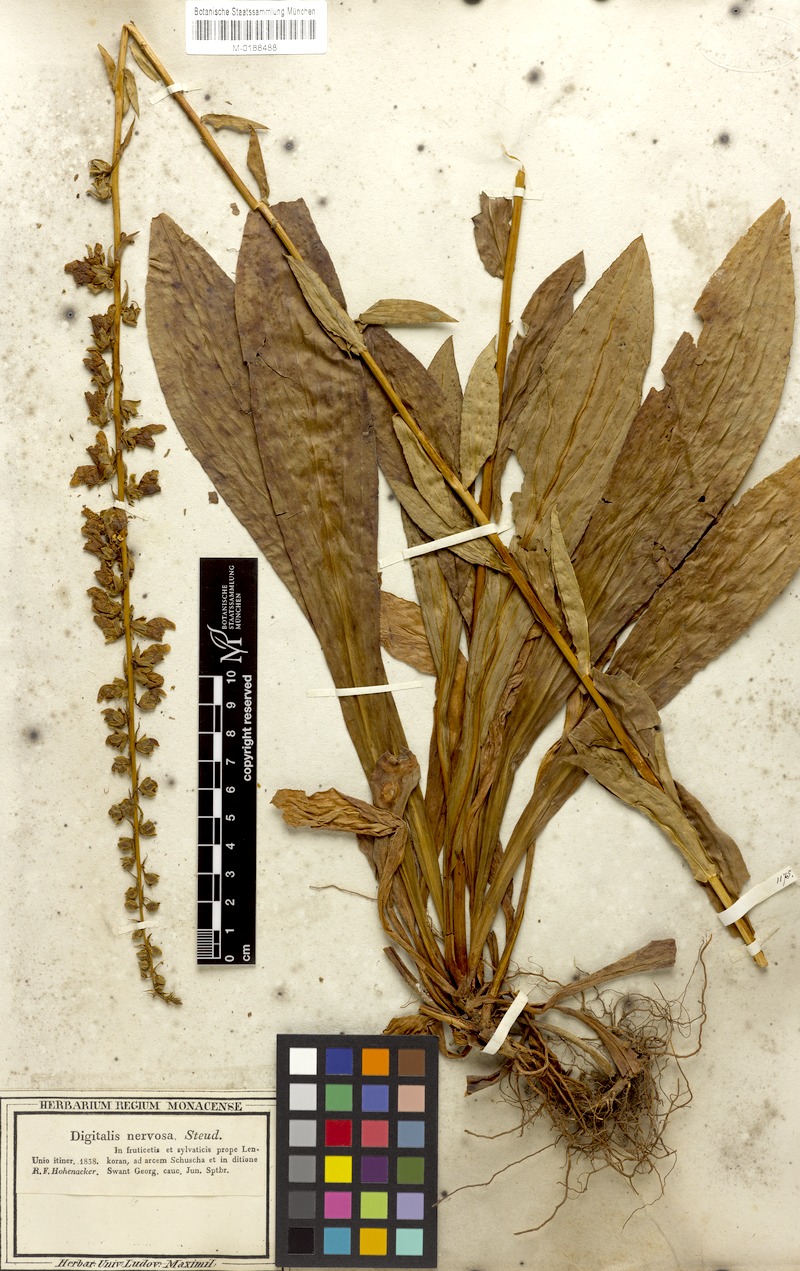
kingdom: Plantae
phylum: Tracheophyta
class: Magnoliopsida
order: Lamiales
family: Plantaginaceae
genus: Digitalis
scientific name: Digitalis nervosa
